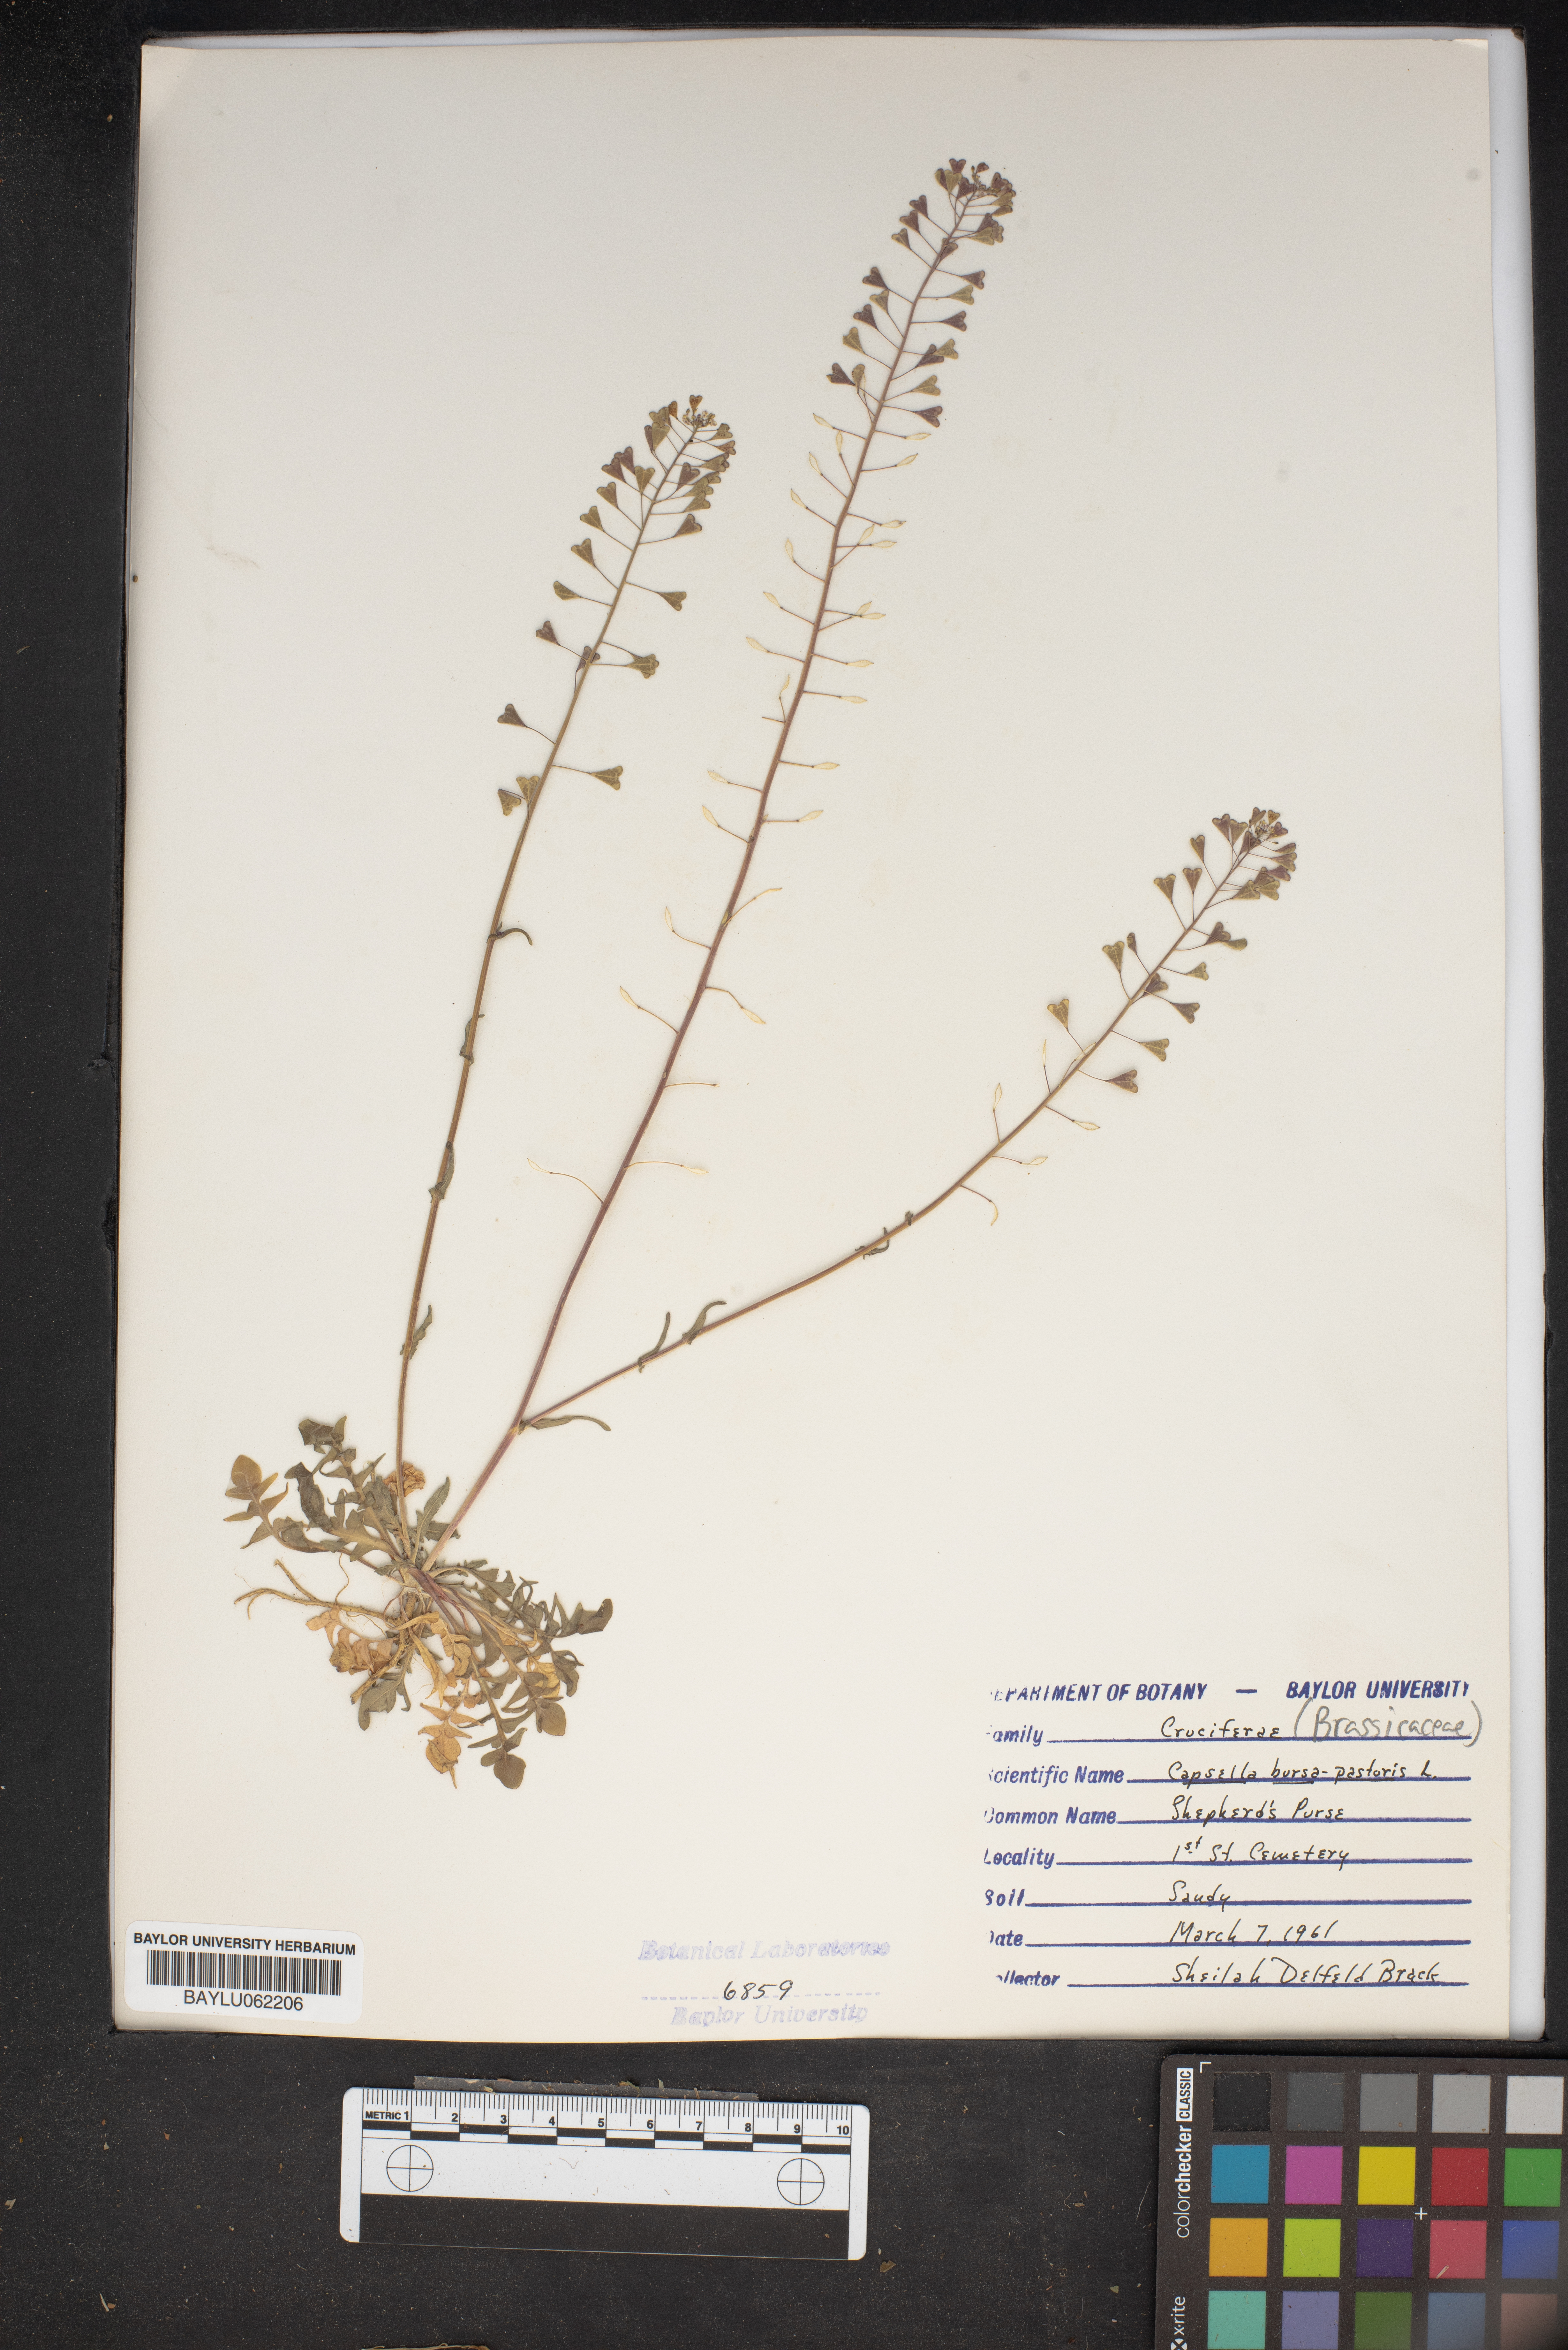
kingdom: Plantae
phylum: Tracheophyta
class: Magnoliopsida
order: Brassicales
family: Brassicaceae
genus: Capsella
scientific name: Capsella bursa-pastoris
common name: Shepherd's purse
